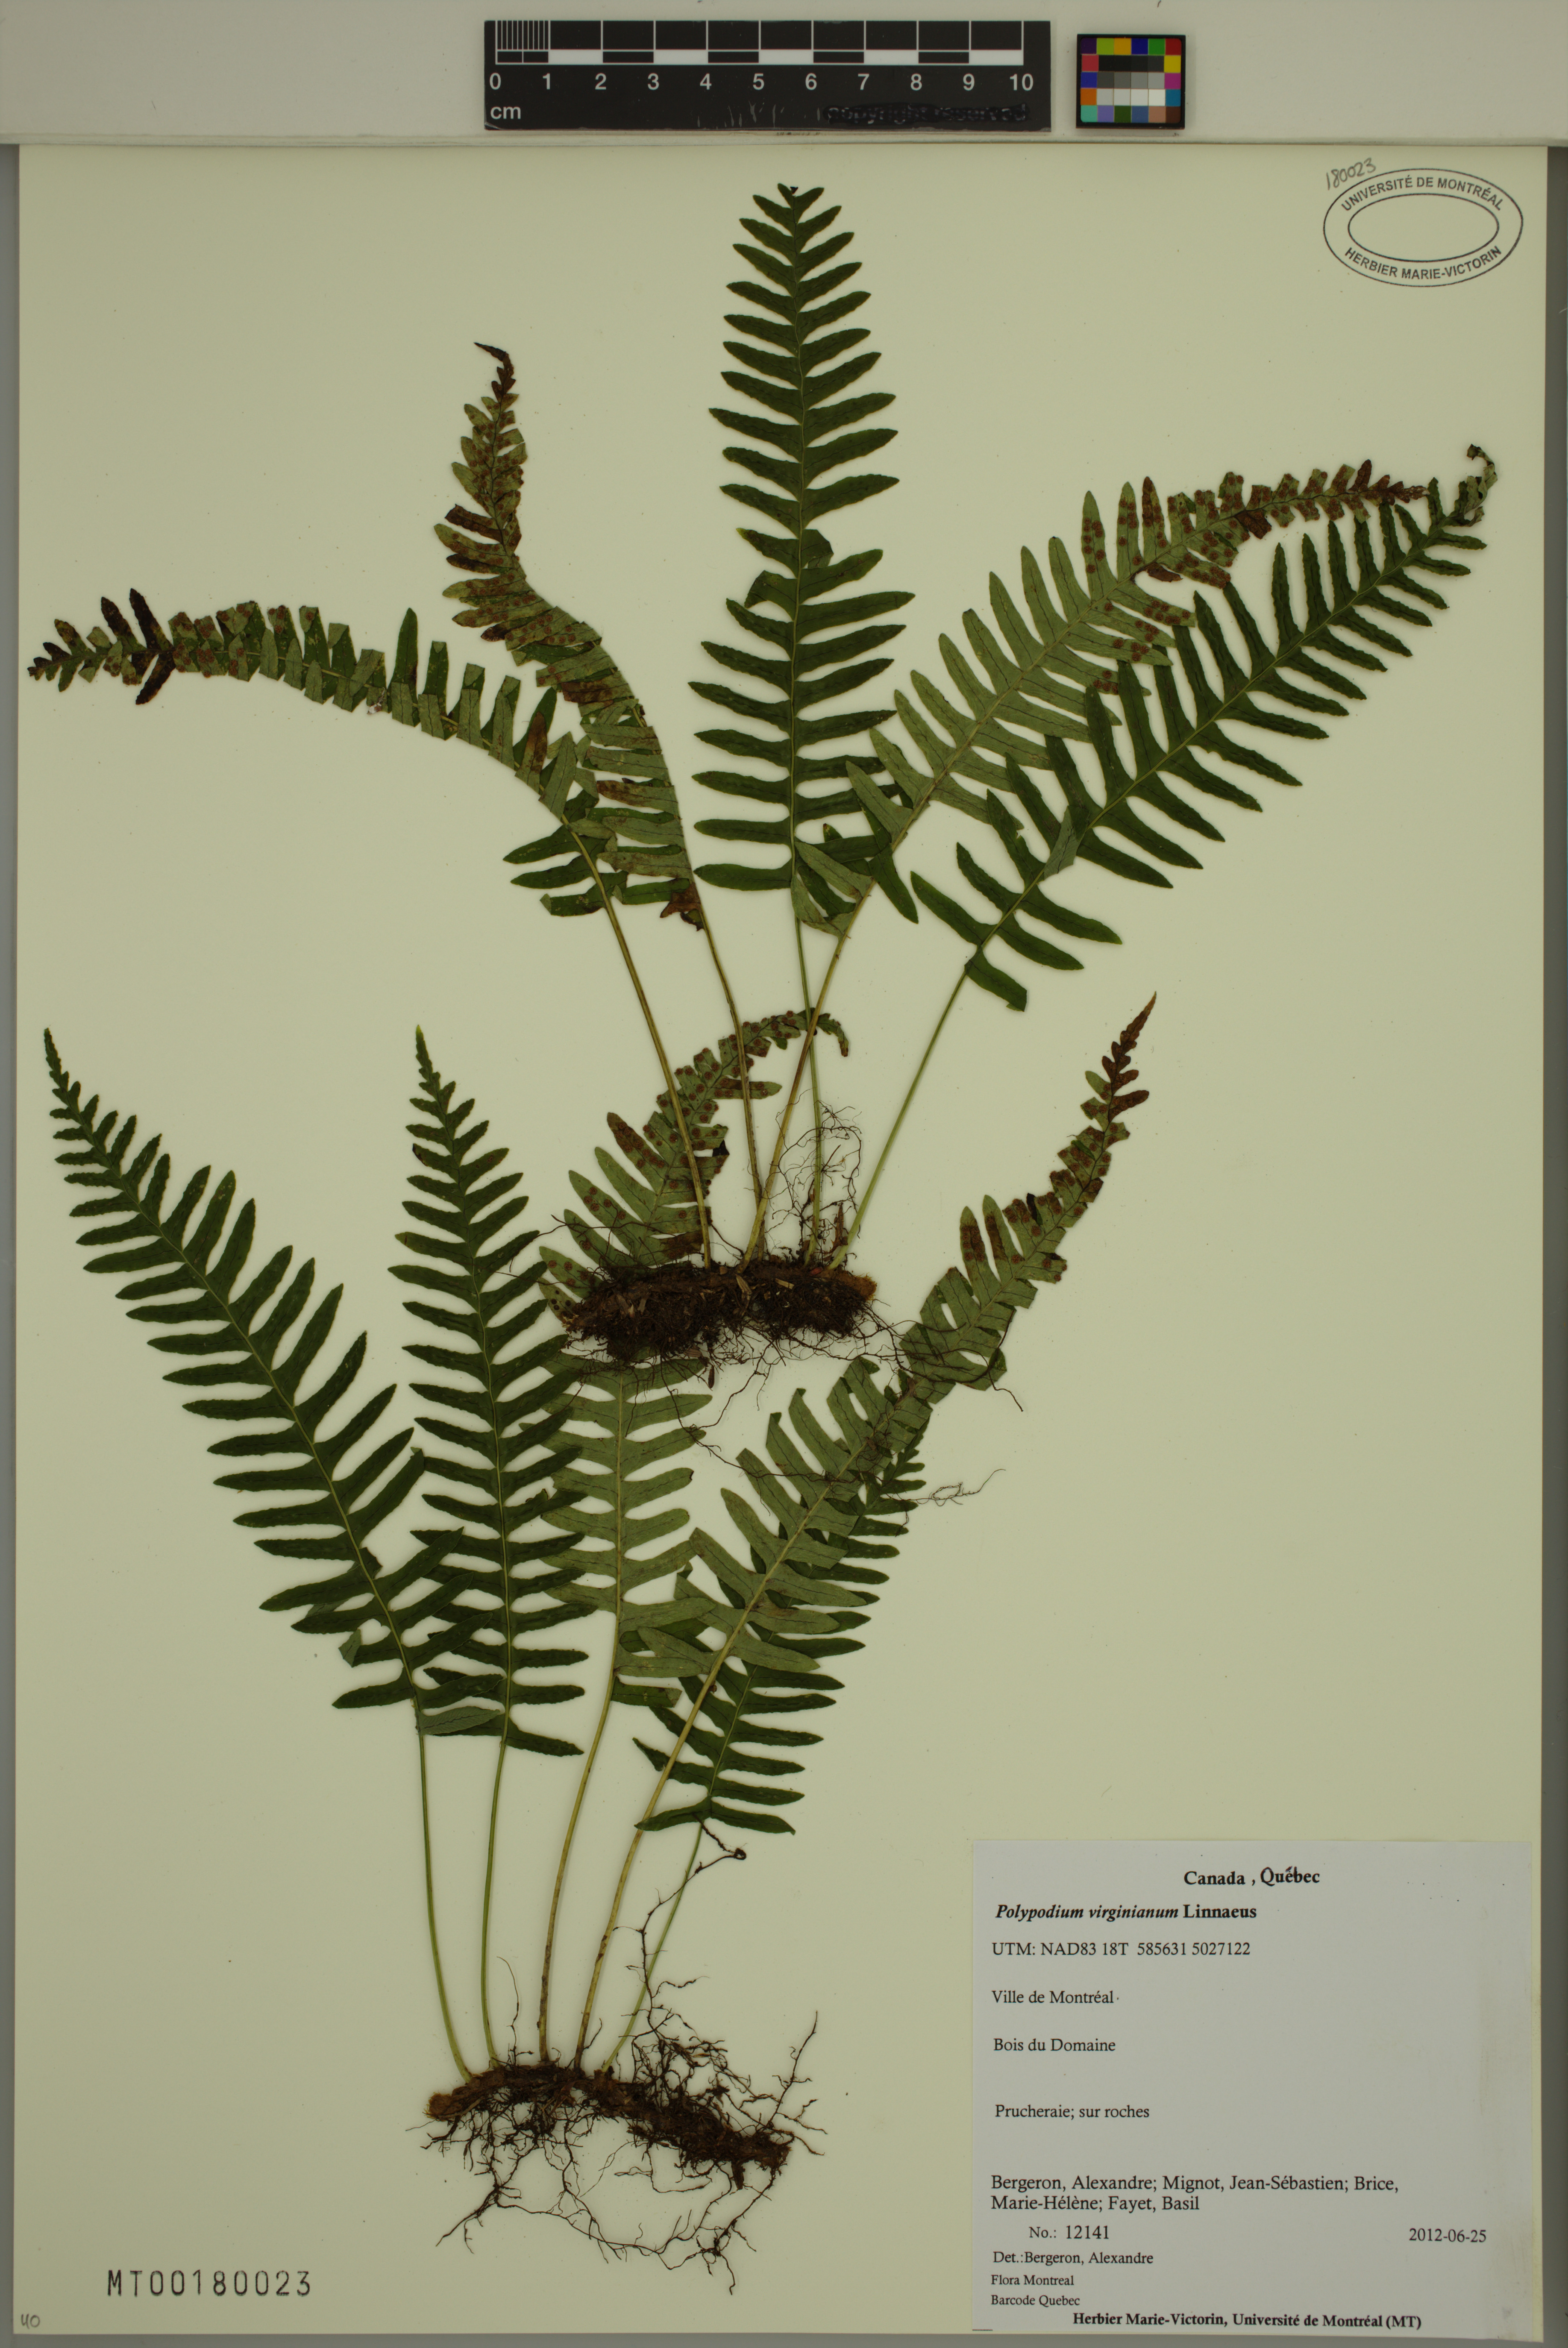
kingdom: Plantae
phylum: Tracheophyta
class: Polypodiopsida
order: Polypodiales
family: Polypodiaceae
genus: Polypodium
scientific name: Polypodium virginianum
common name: American wall fern
